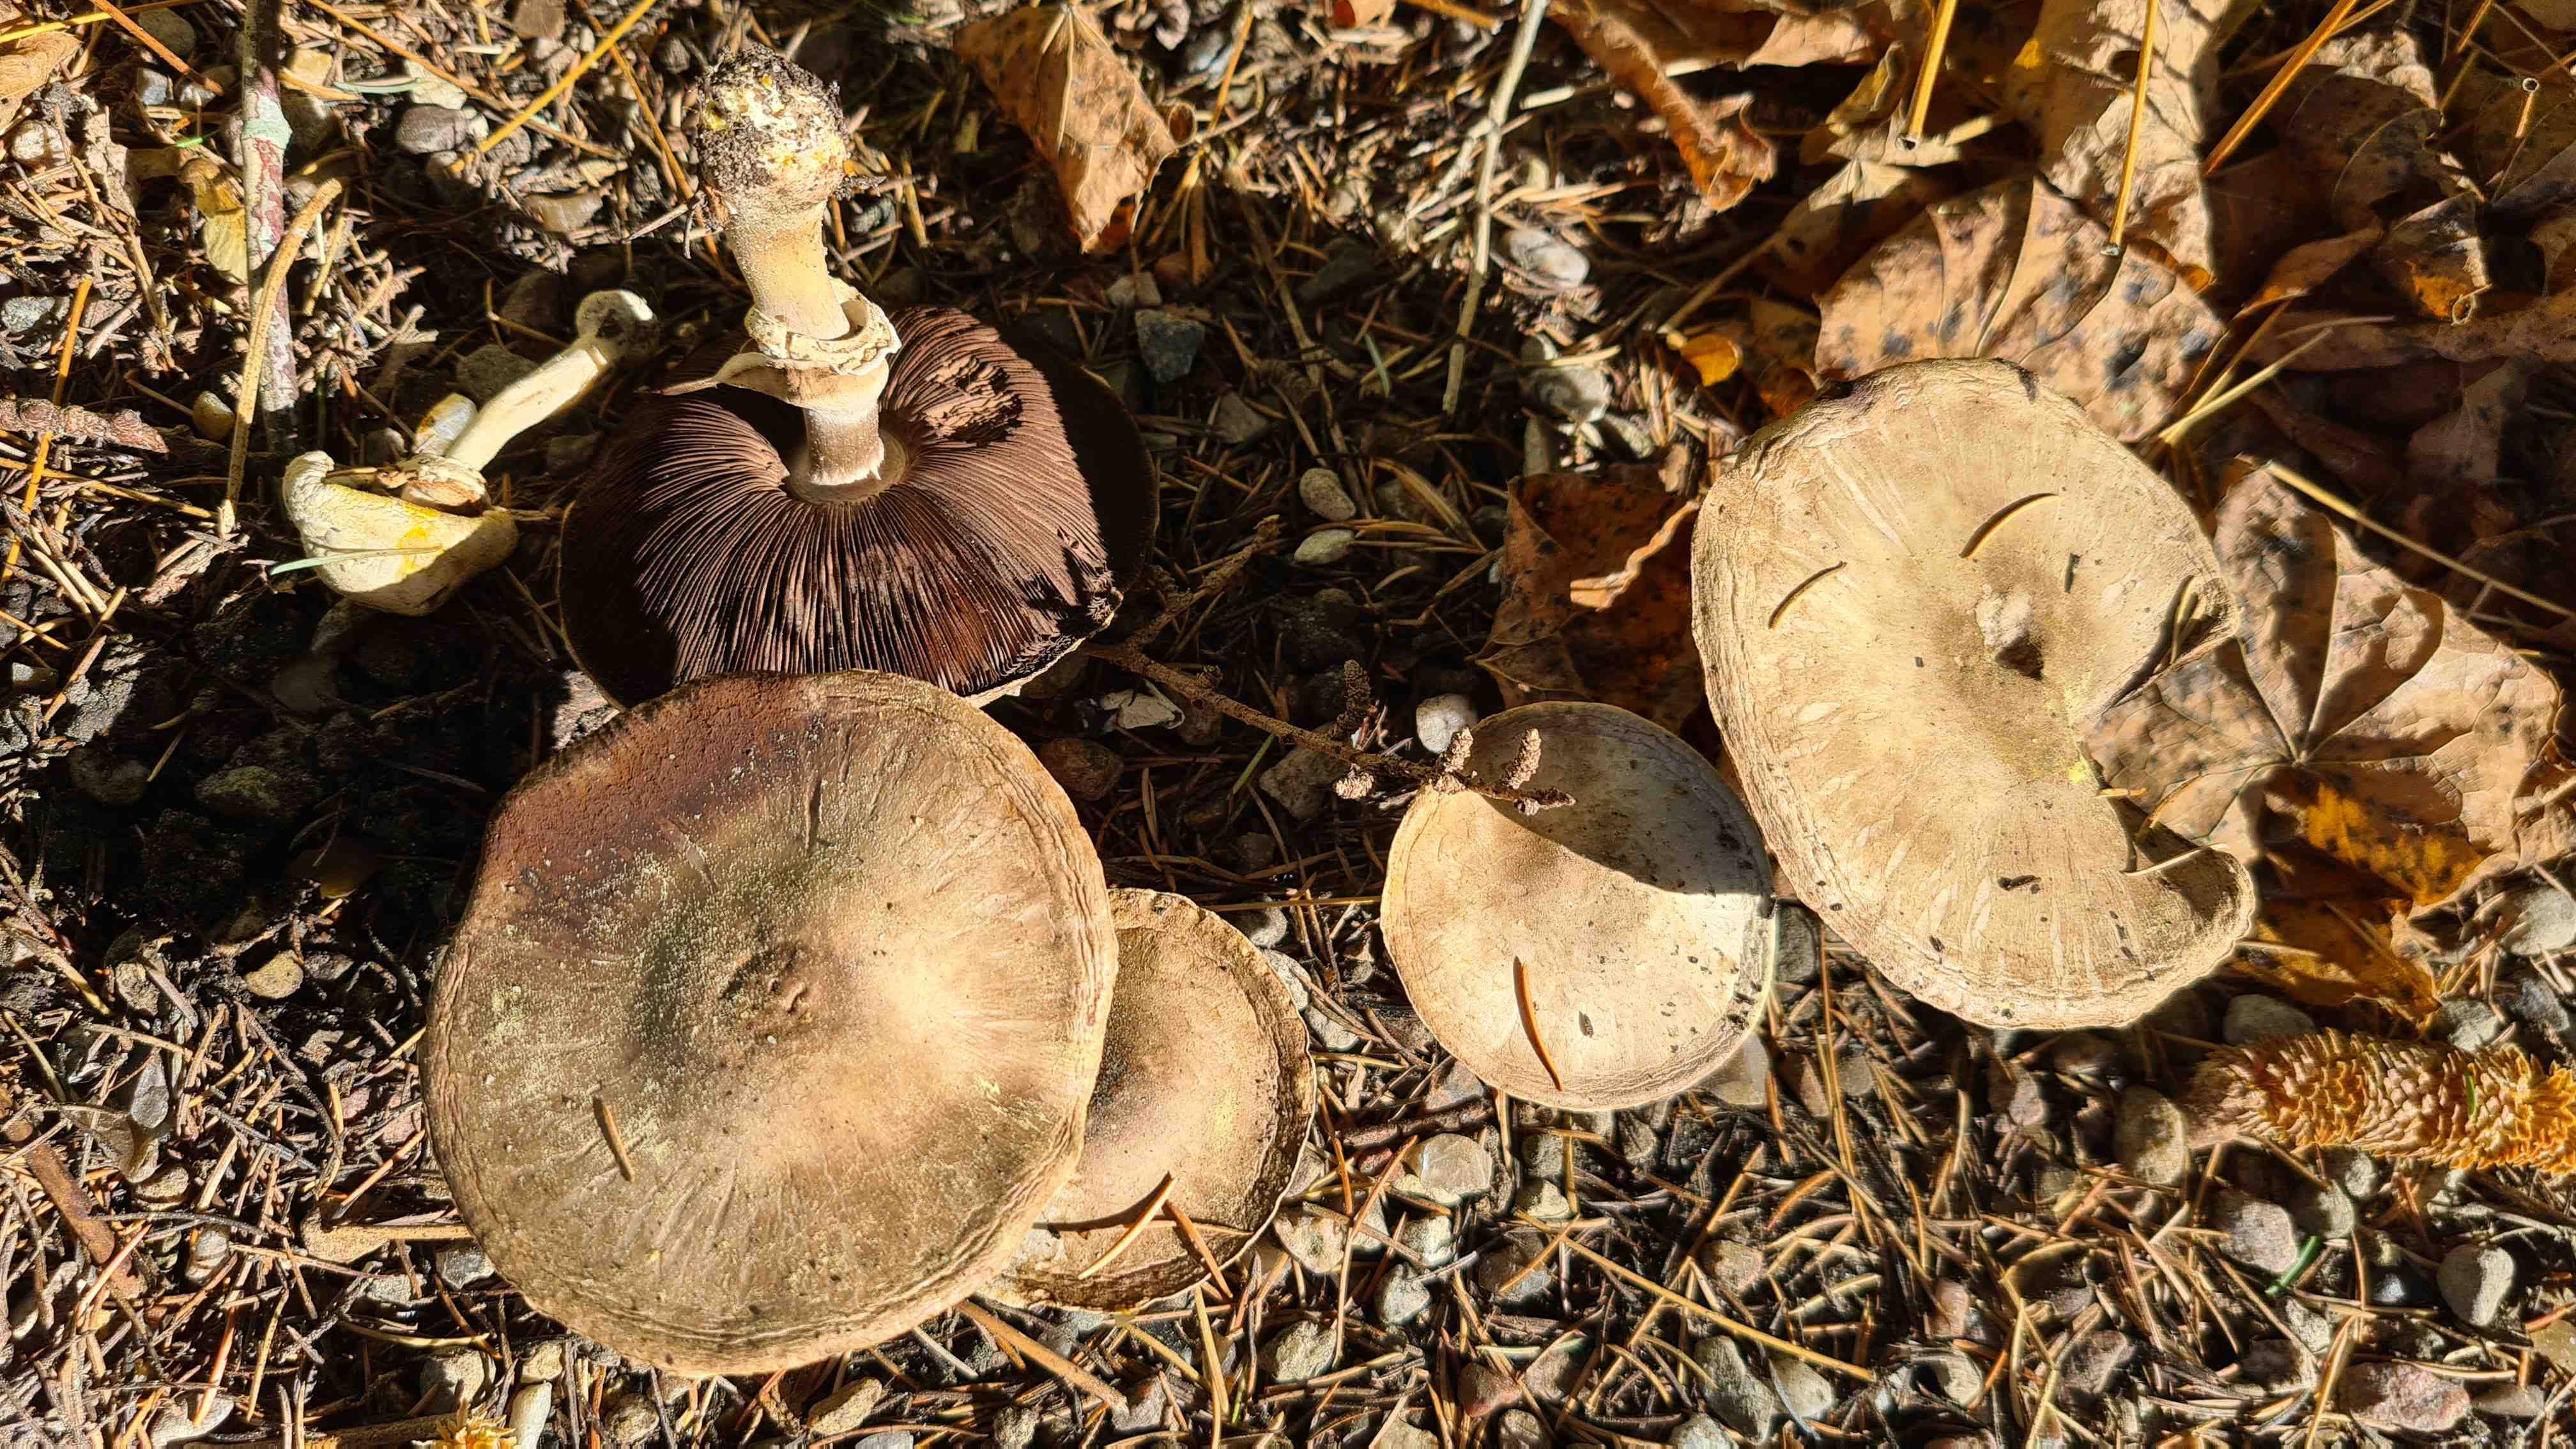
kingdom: Fungi
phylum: Basidiomycota
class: Agaricomycetes
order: Agaricales
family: Agaricaceae
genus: Agaricus
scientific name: Agaricus xanthodermus
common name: karbol-champignon
